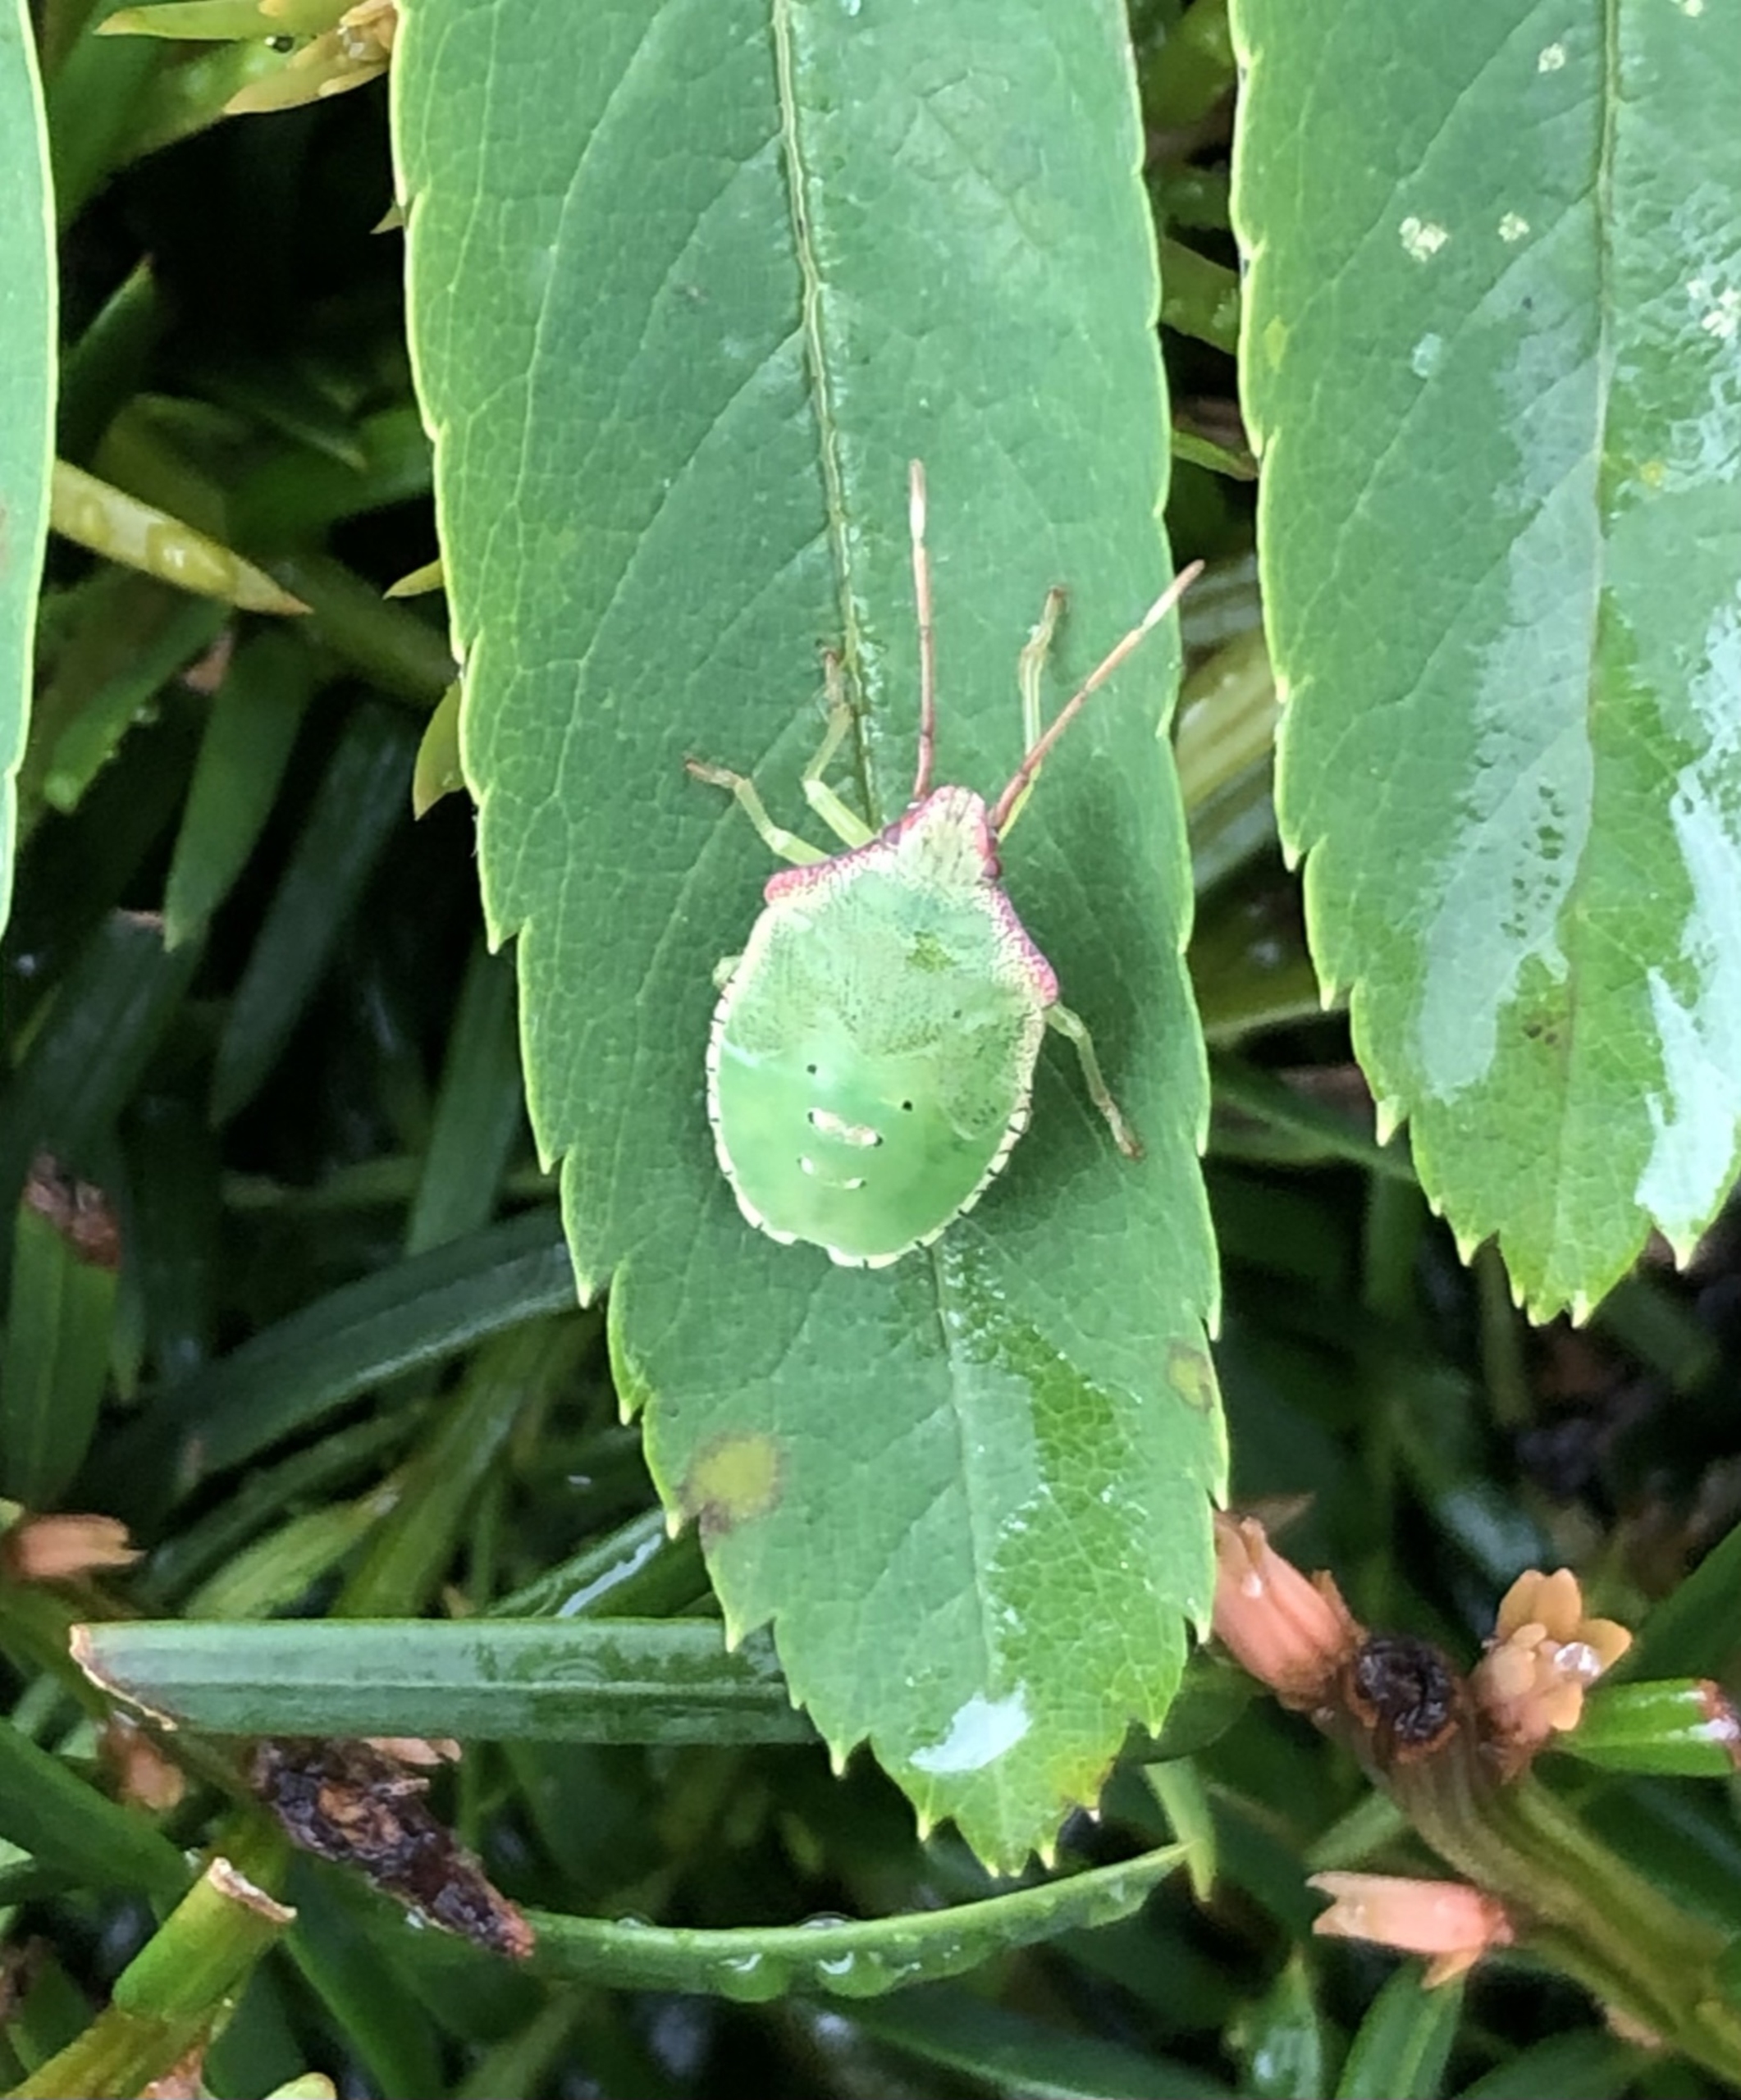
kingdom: Animalia
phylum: Arthropoda
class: Insecta
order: Hemiptera
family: Pentatomidae
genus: Palomena
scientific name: Palomena prasina
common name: Grøn bredtæge
